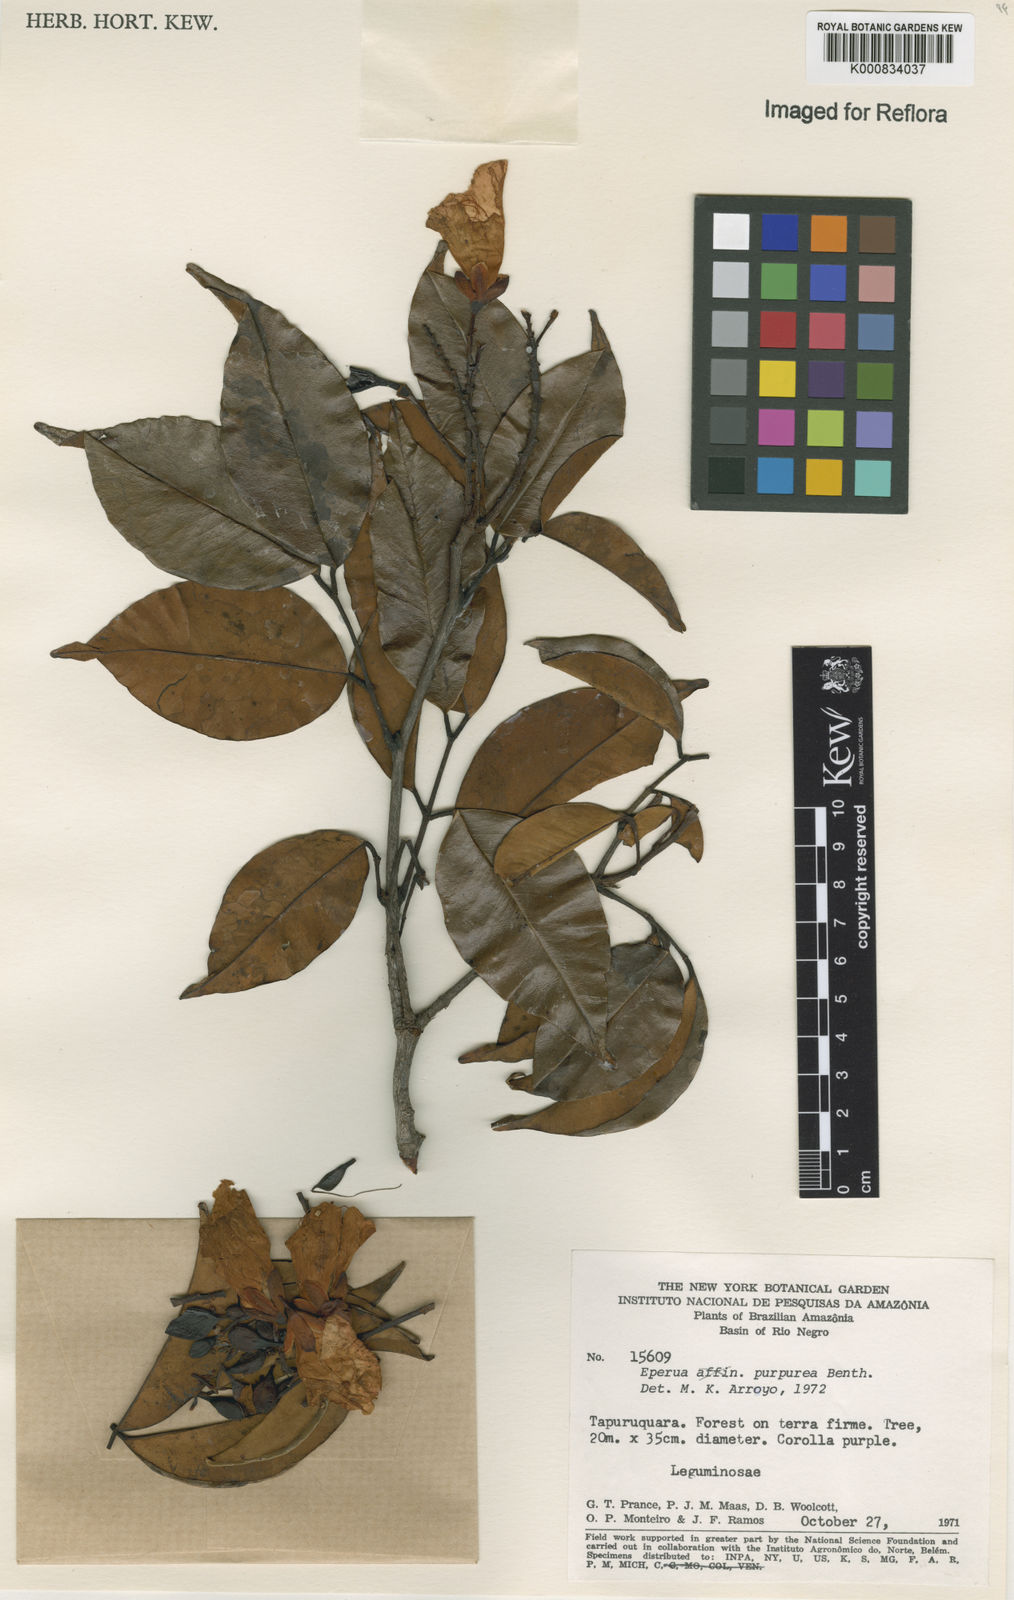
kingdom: Plantae
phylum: Tracheophyta
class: Magnoliopsida
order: Fabales
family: Fabaceae
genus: Eperua
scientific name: Eperua purpurea
